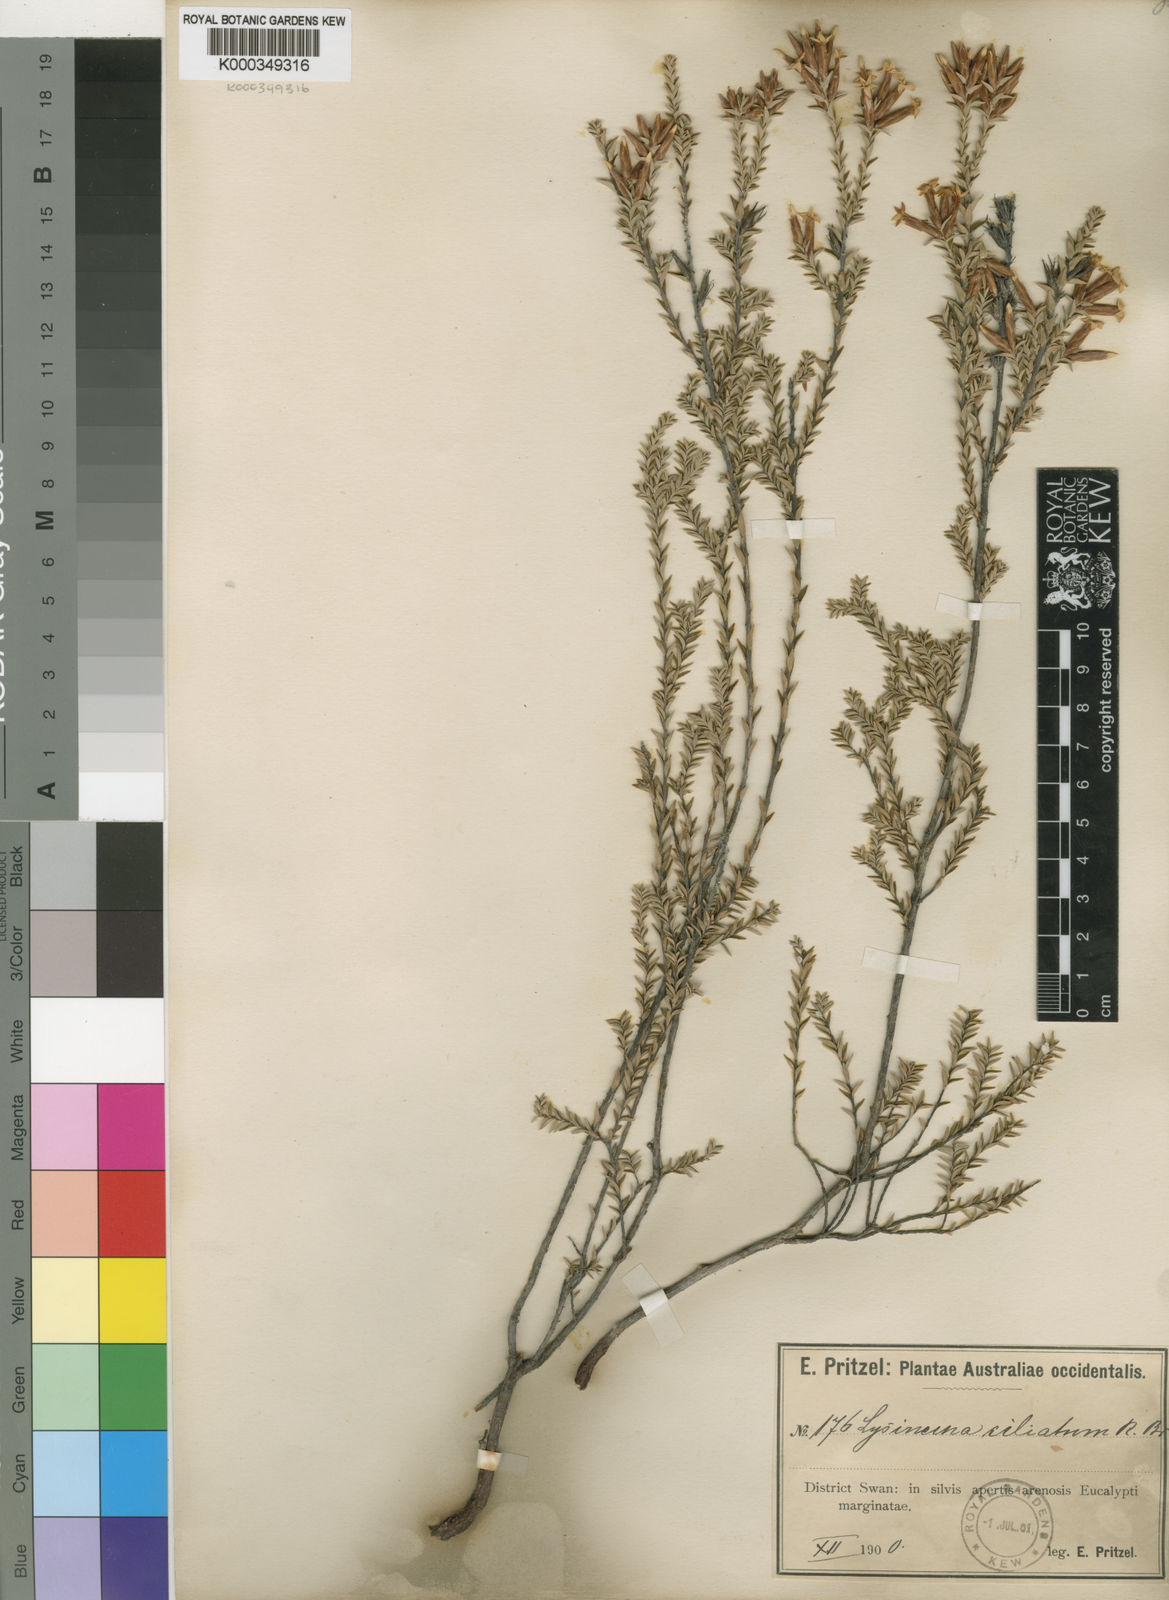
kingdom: Plantae
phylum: Tracheophyta
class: Magnoliopsida
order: Ericales
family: Ericaceae
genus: Lysinema
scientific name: Lysinema ciliatum
